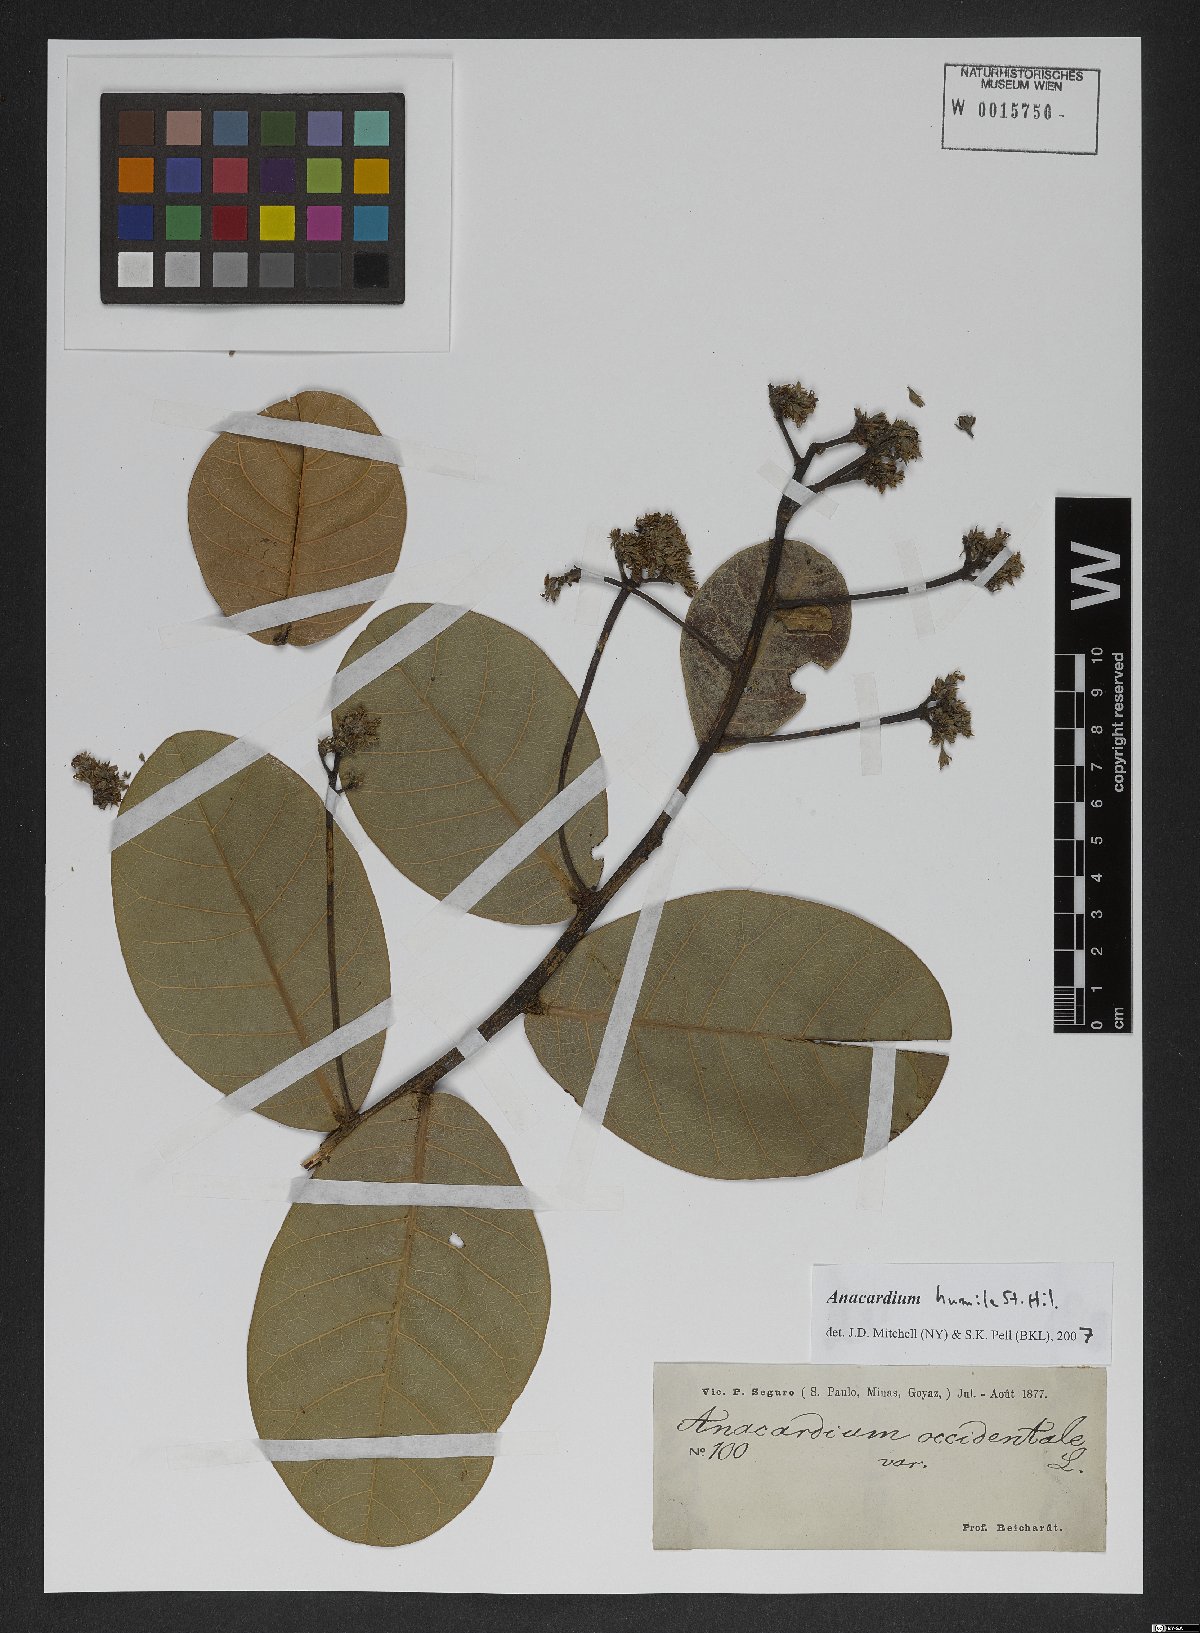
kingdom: Plantae
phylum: Tracheophyta
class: Magnoliopsida
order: Sapindales
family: Anacardiaceae
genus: Anacardium
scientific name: Anacardium humile
